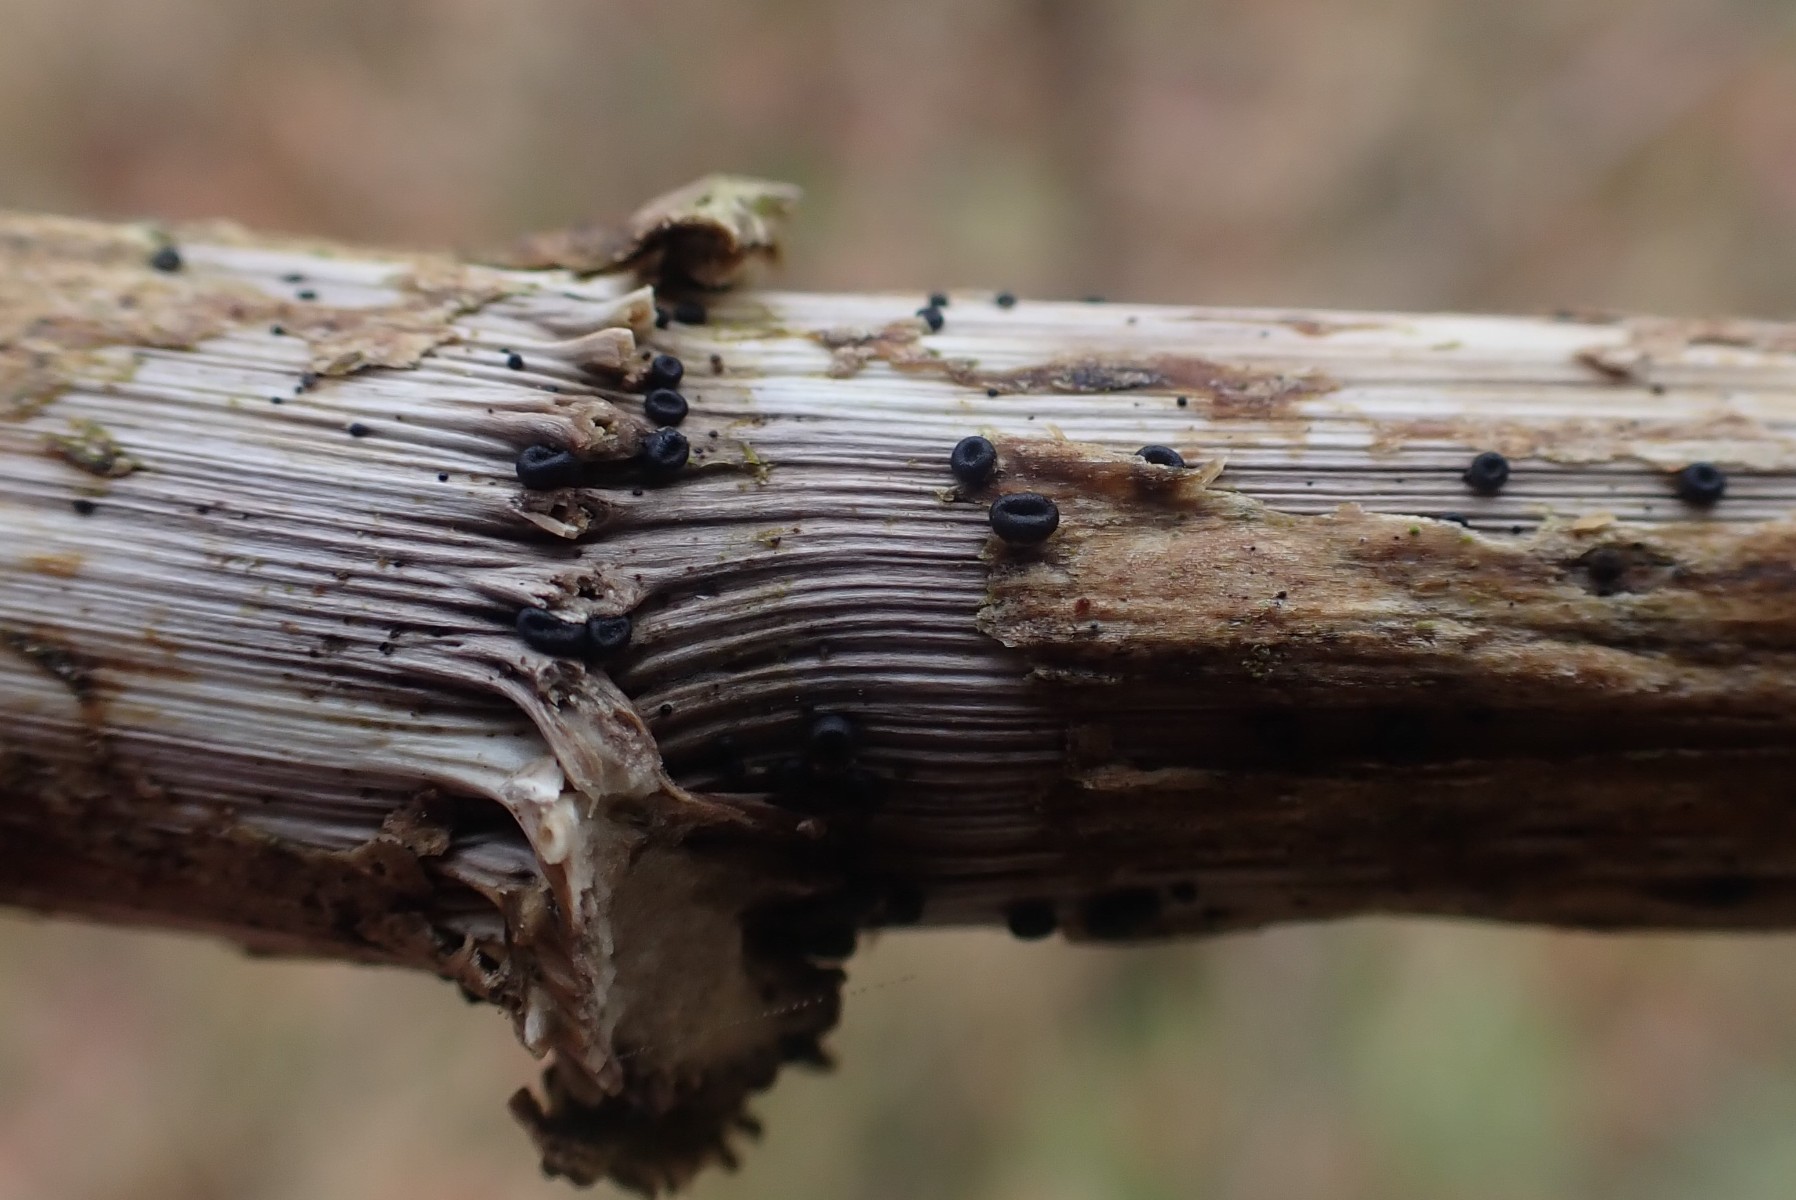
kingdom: Fungi
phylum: Ascomycota
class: Leotiomycetes
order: Helotiales
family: Heterosphaeriaceae
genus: Heterosphaeria
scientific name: Heterosphaeria
